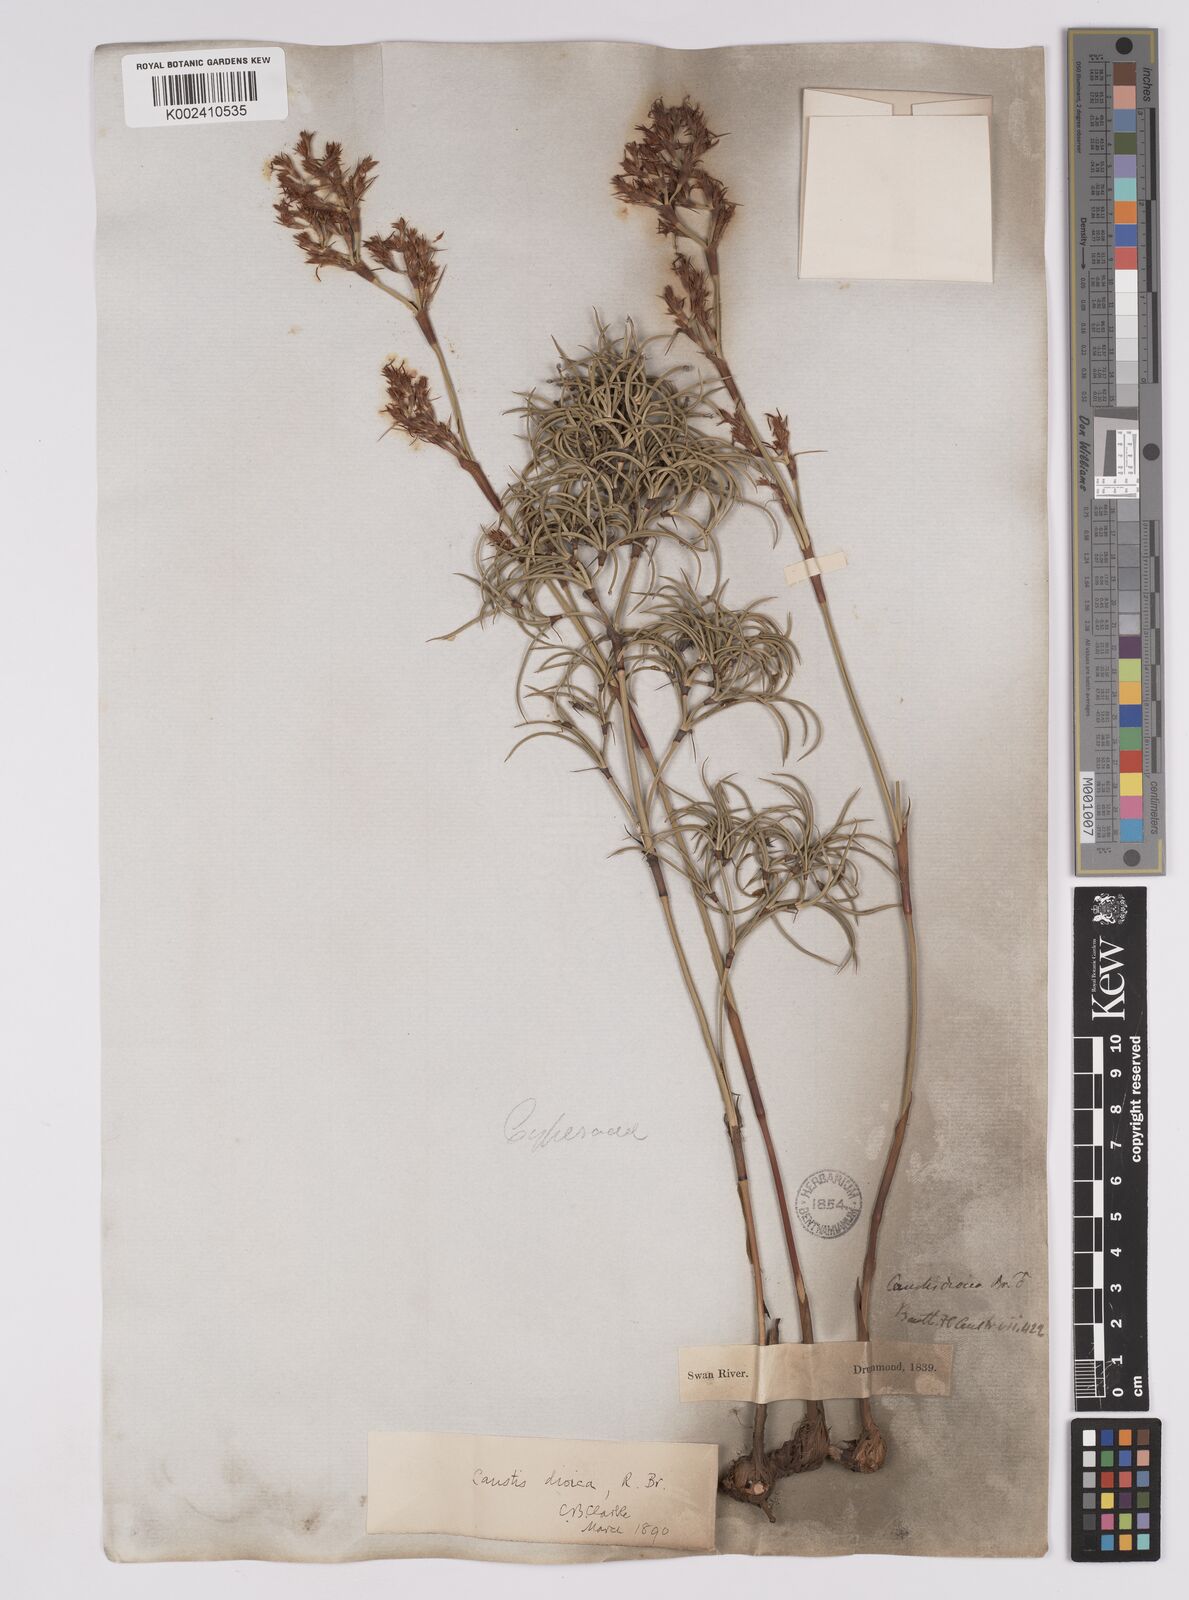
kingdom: Plantae
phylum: Tracheophyta
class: Liliopsida
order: Poales
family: Cyperaceae
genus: Caustis
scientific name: Caustis dioica
